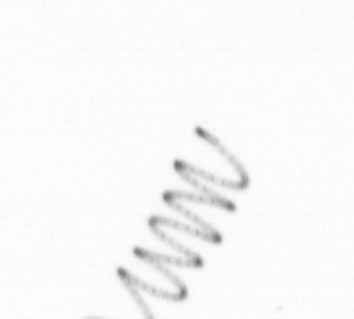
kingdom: Chromista
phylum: Ochrophyta
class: Bacillariophyceae
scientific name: Bacillariophyceae
